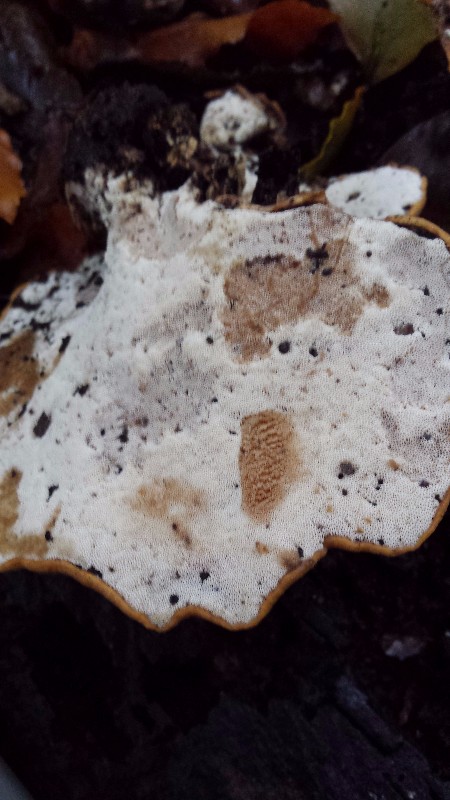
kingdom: Fungi
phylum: Basidiomycota
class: Agaricomycetes
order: Polyporales
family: Polyporaceae
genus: Cerioporus
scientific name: Cerioporus varius
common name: foranderlig stilkporesvamp
